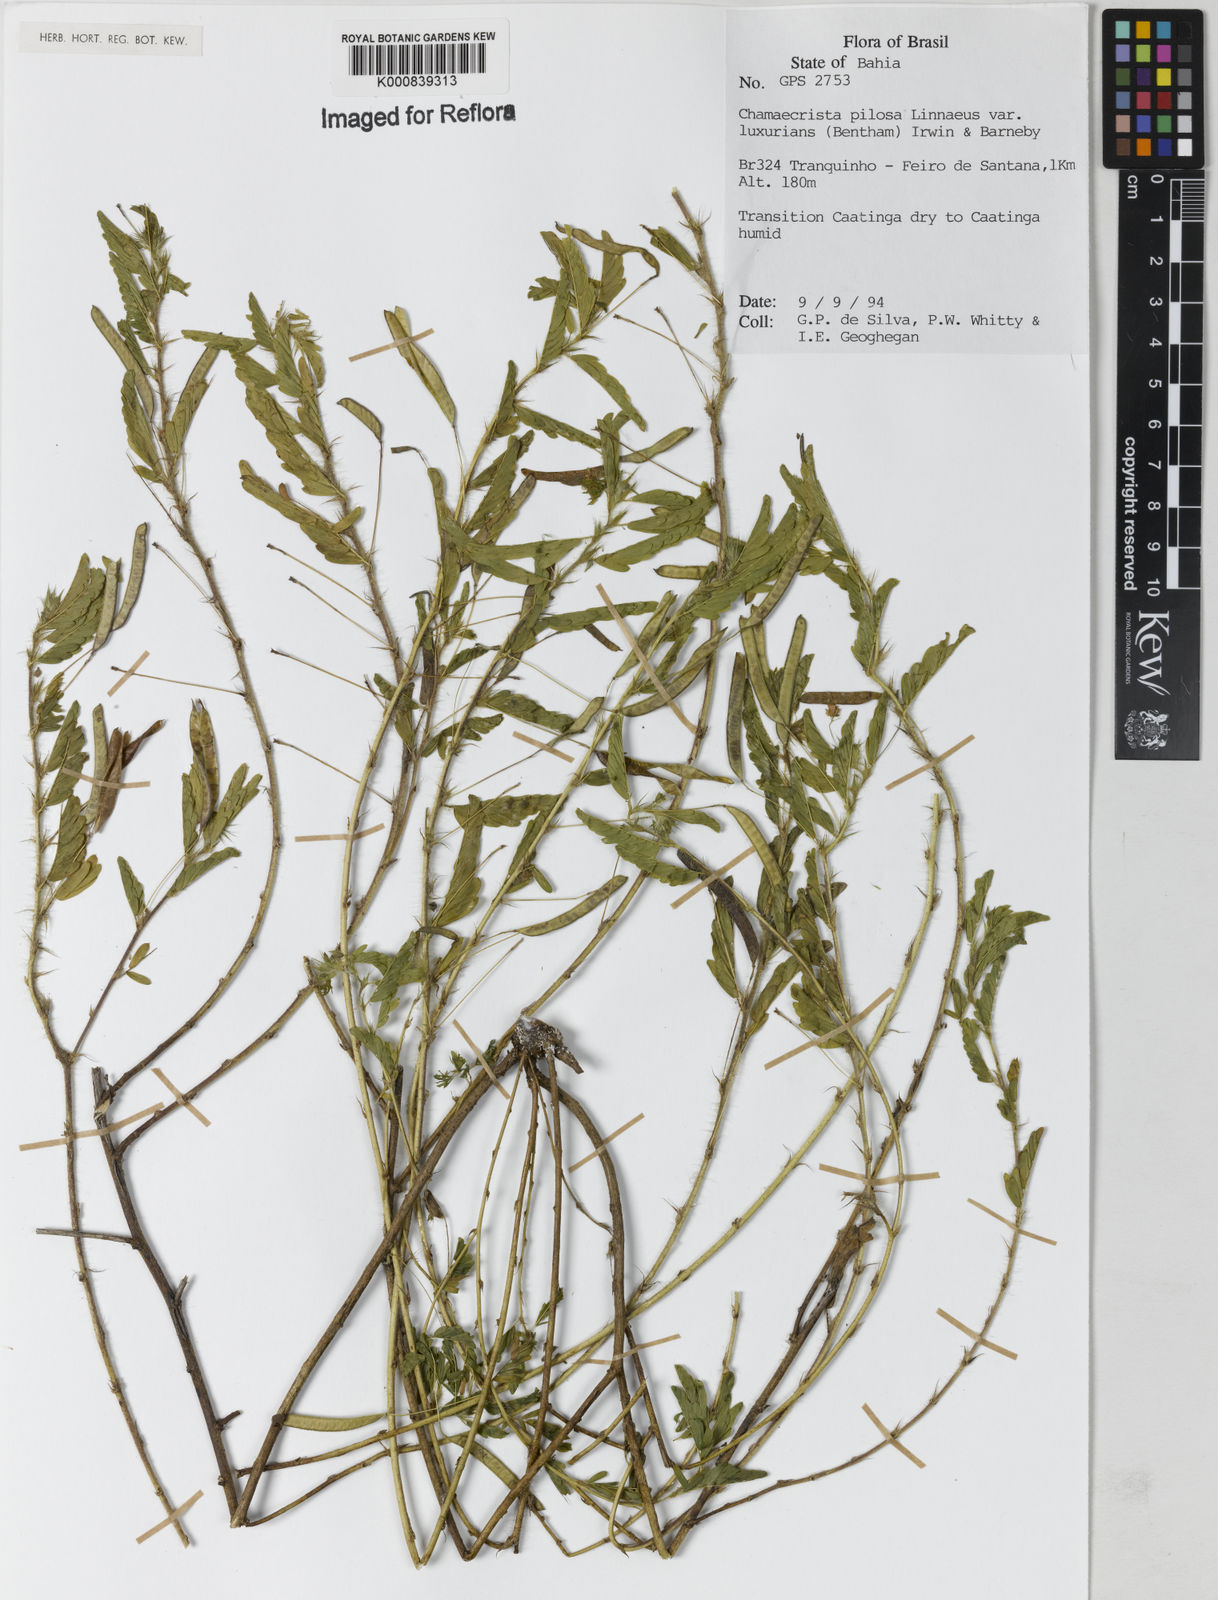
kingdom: Plantae
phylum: Tracheophyta
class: Magnoliopsida
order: Fabales
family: Fabaceae
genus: Chamaecrista
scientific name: Chamaecrista pilosa
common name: Hairy sensitive pea
